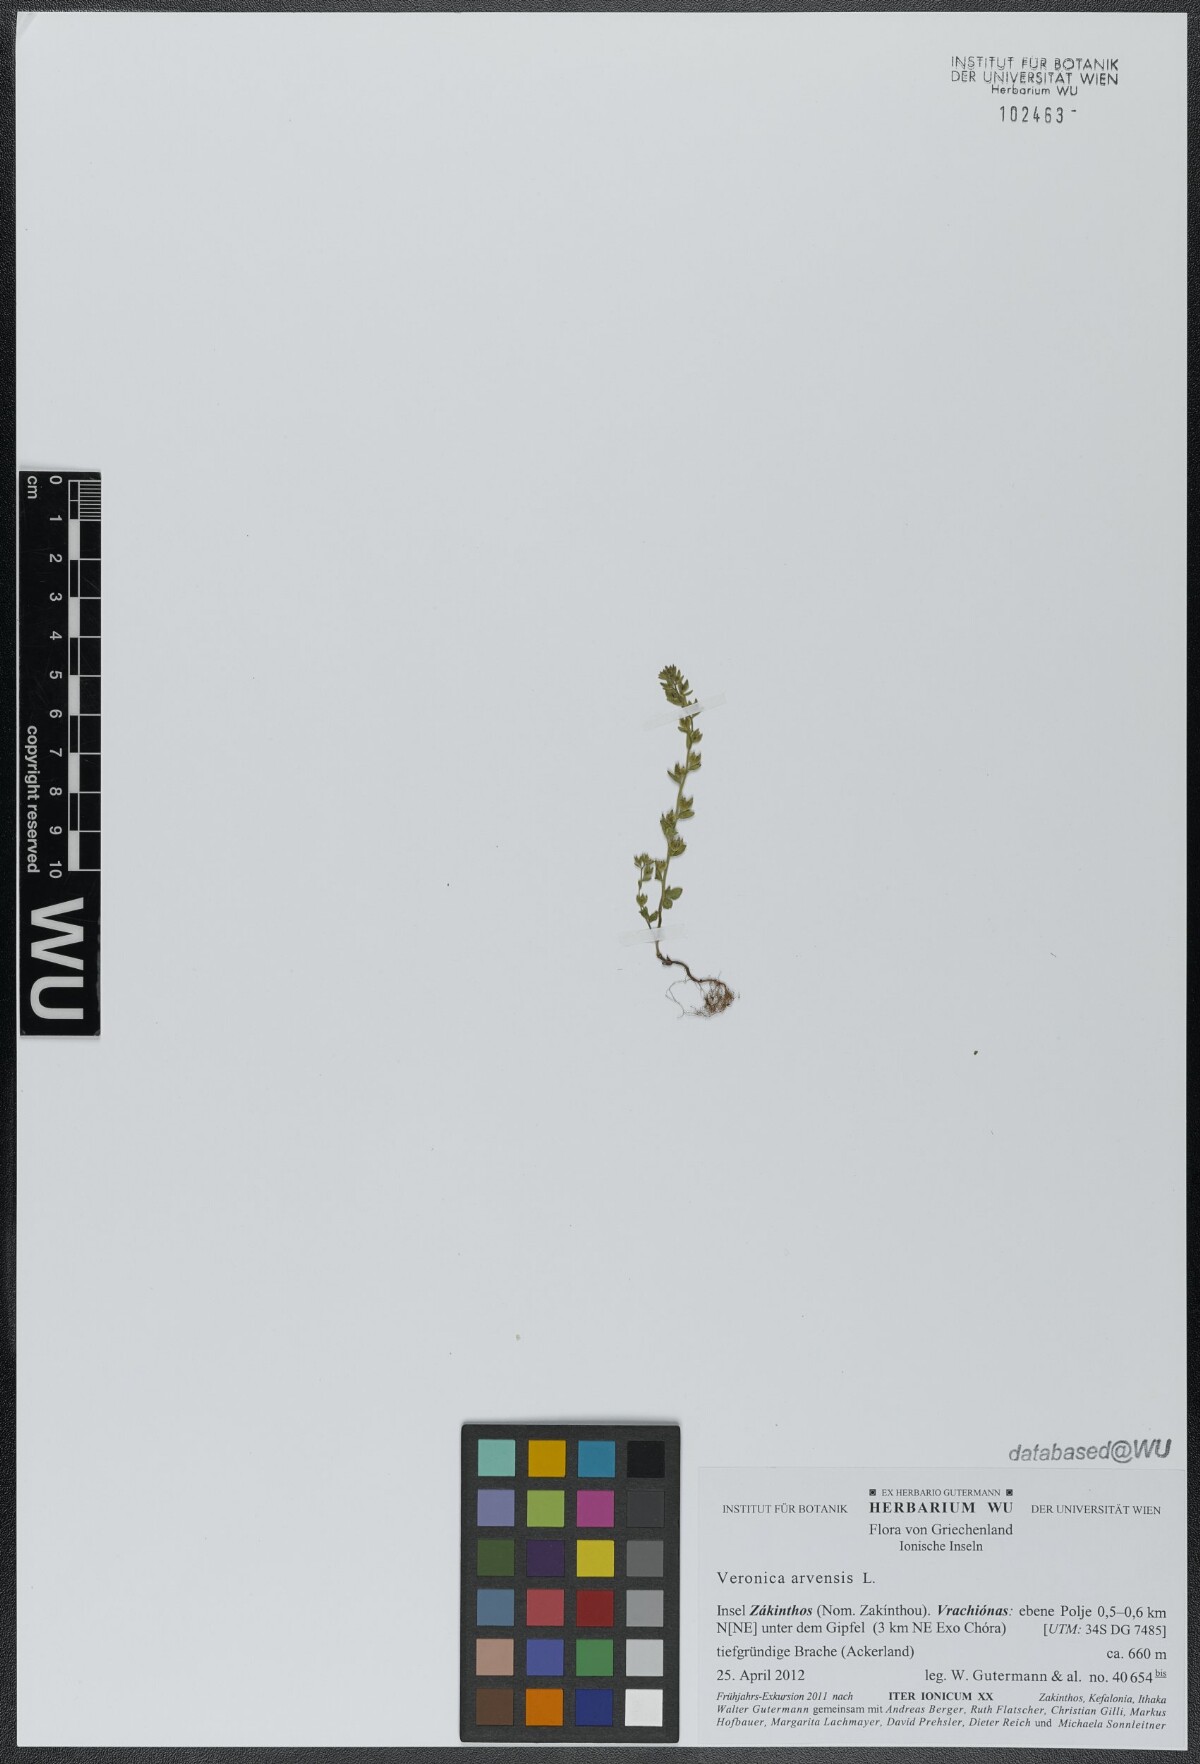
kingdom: Plantae
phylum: Tracheophyta
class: Magnoliopsida
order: Lamiales
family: Plantaginaceae
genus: Veronica
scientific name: Veronica arvensis
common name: Corn speedwell
